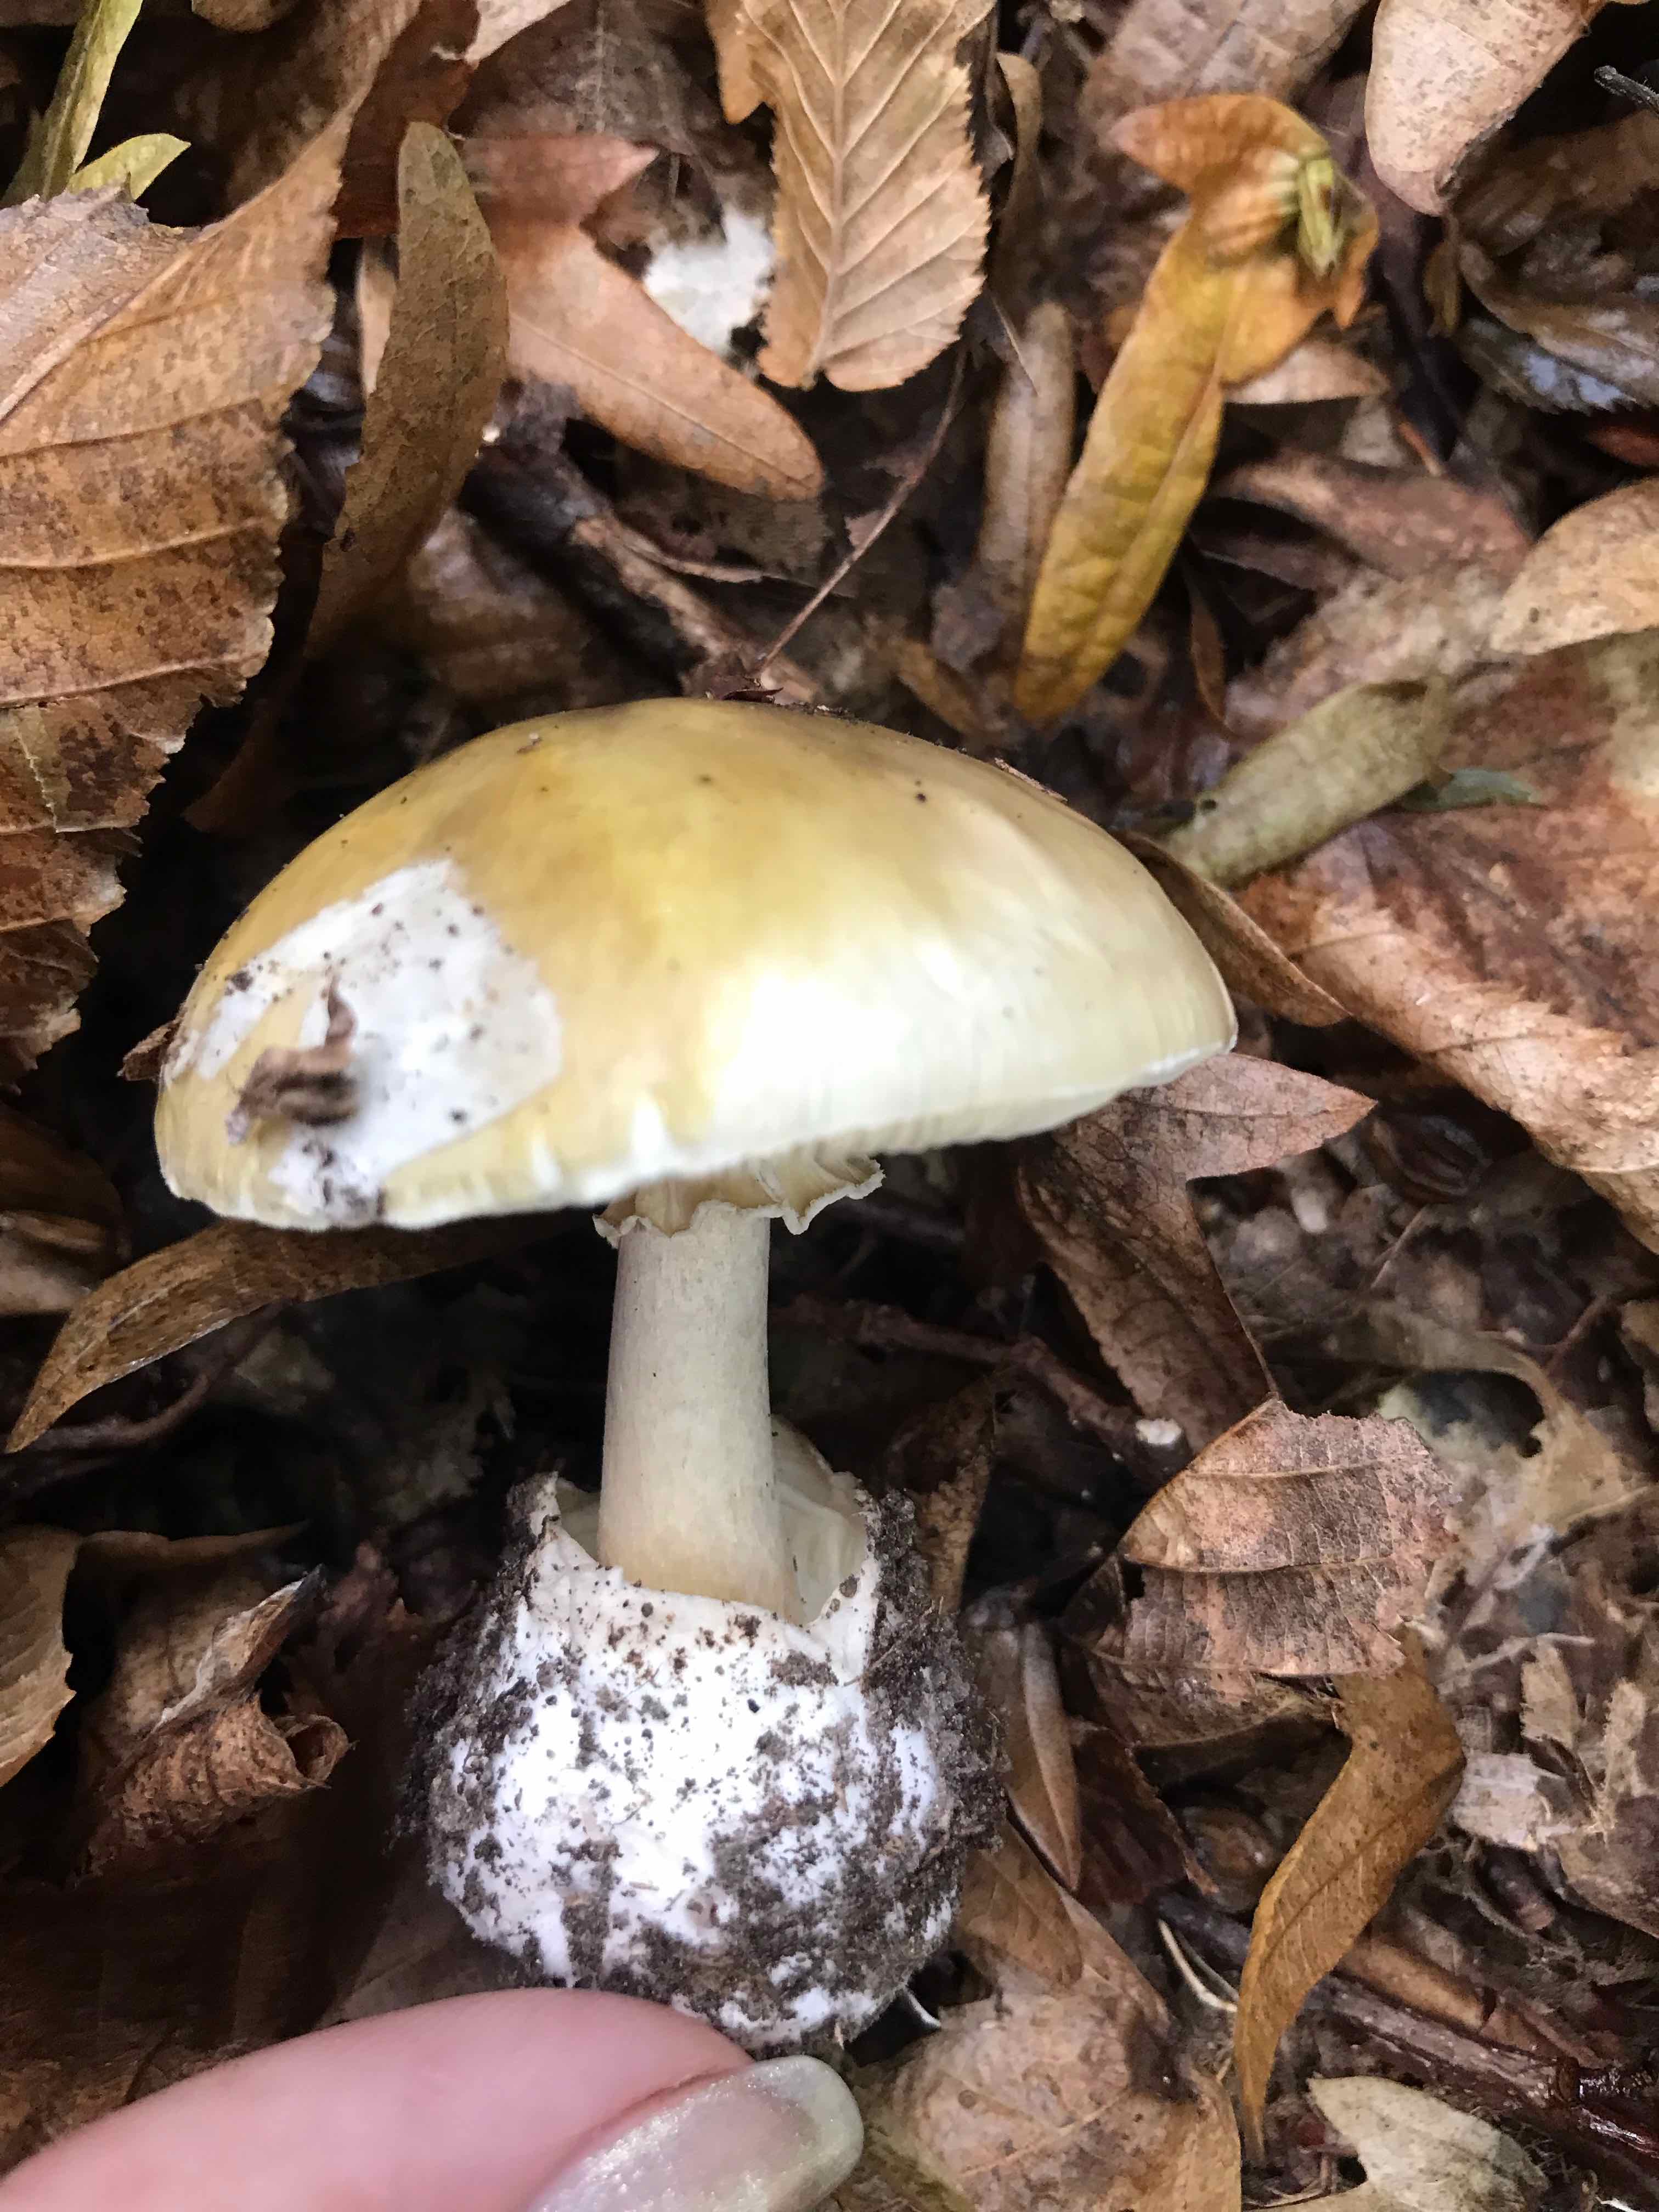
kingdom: Fungi
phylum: Basidiomycota
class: Agaricomycetes
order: Agaricales
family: Amanitaceae
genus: Amanita
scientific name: Amanita phalloides
